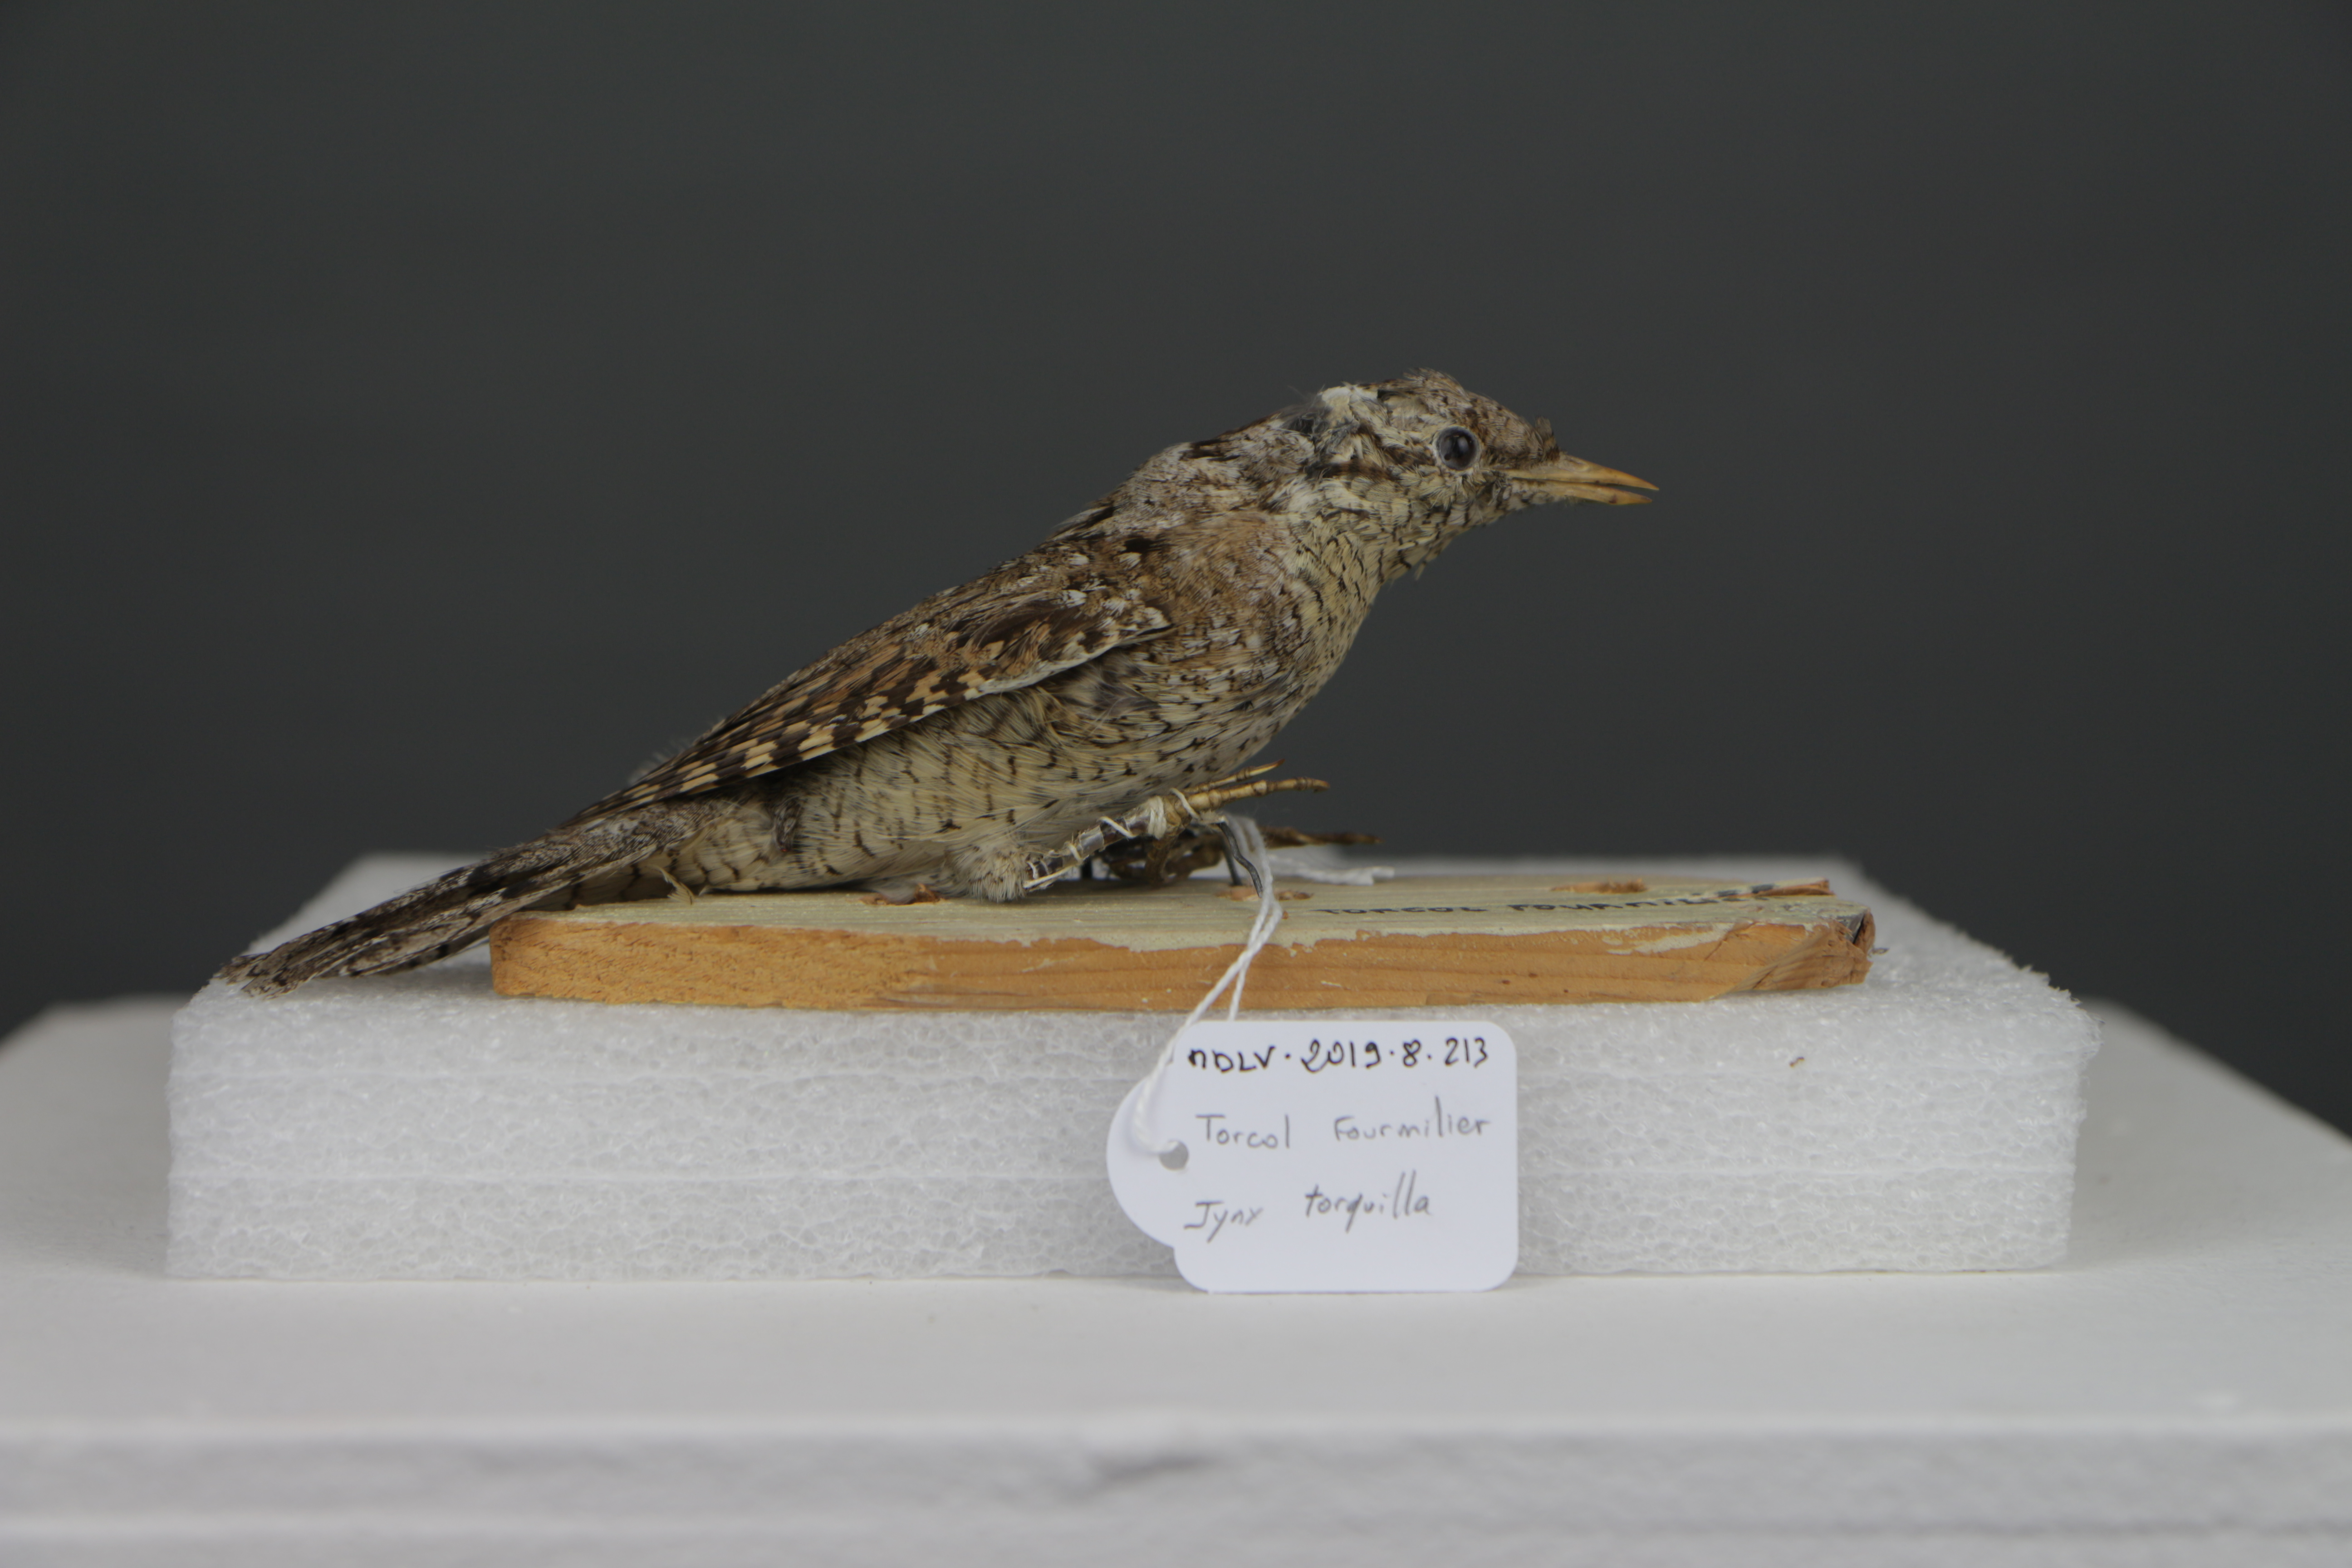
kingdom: Animalia
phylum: Chordata
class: Aves
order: Piciformes
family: Picidae
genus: Jynx
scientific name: Jynx torquilla
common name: Eurasian wryneck
